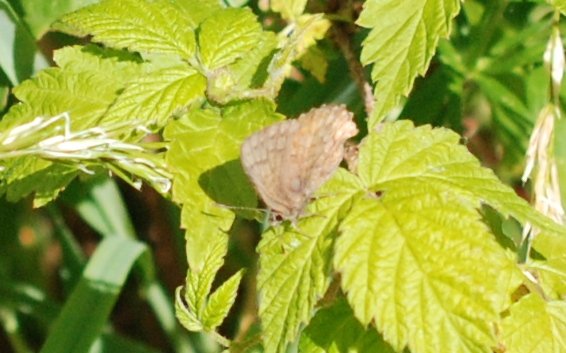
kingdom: Animalia
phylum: Arthropoda
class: Insecta
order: Lepidoptera
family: Lycaenidae
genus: Incisalia
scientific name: Incisalia irioides
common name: Brown Elfin
